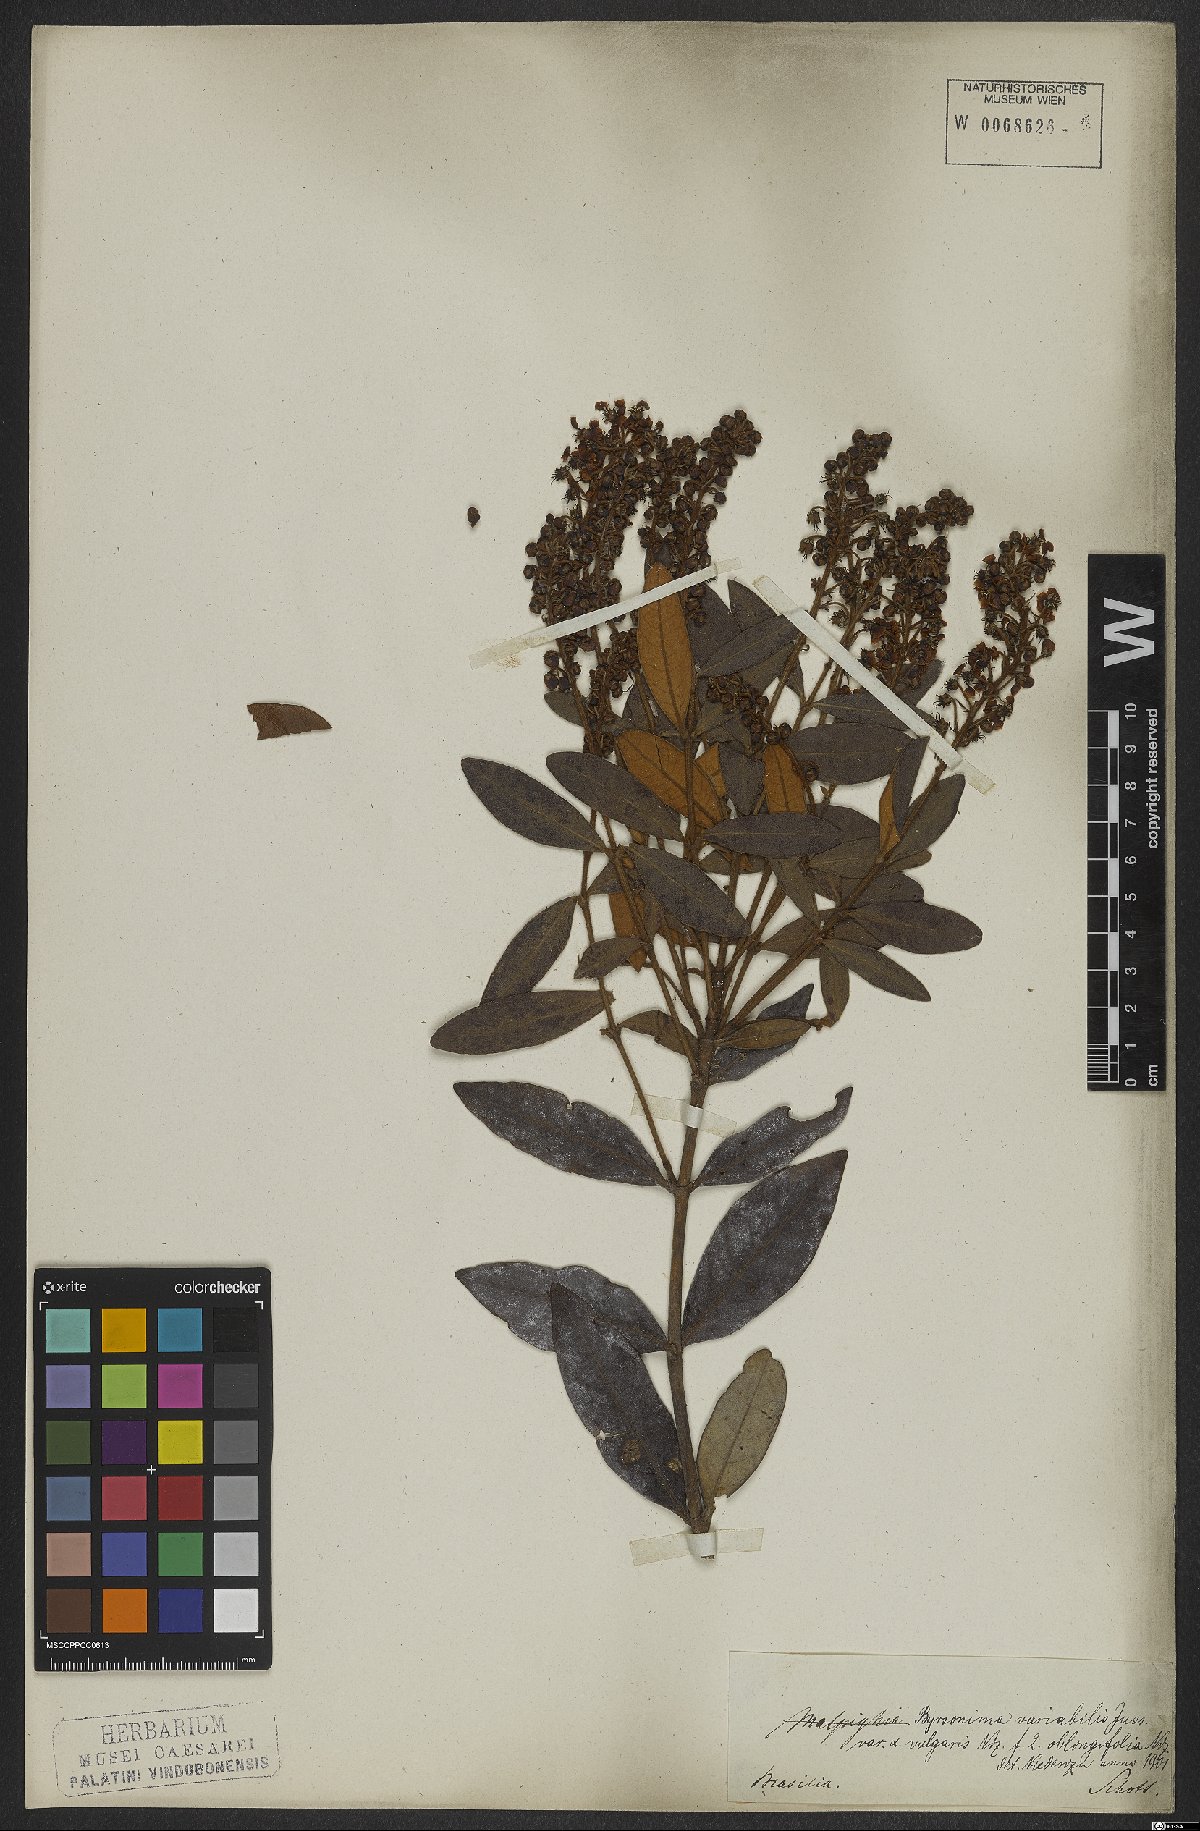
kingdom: Plantae
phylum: Tracheophyta
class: Magnoliopsida
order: Malpighiales
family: Malpighiaceae
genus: Byrsonima
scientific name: Byrsonima variabilis
